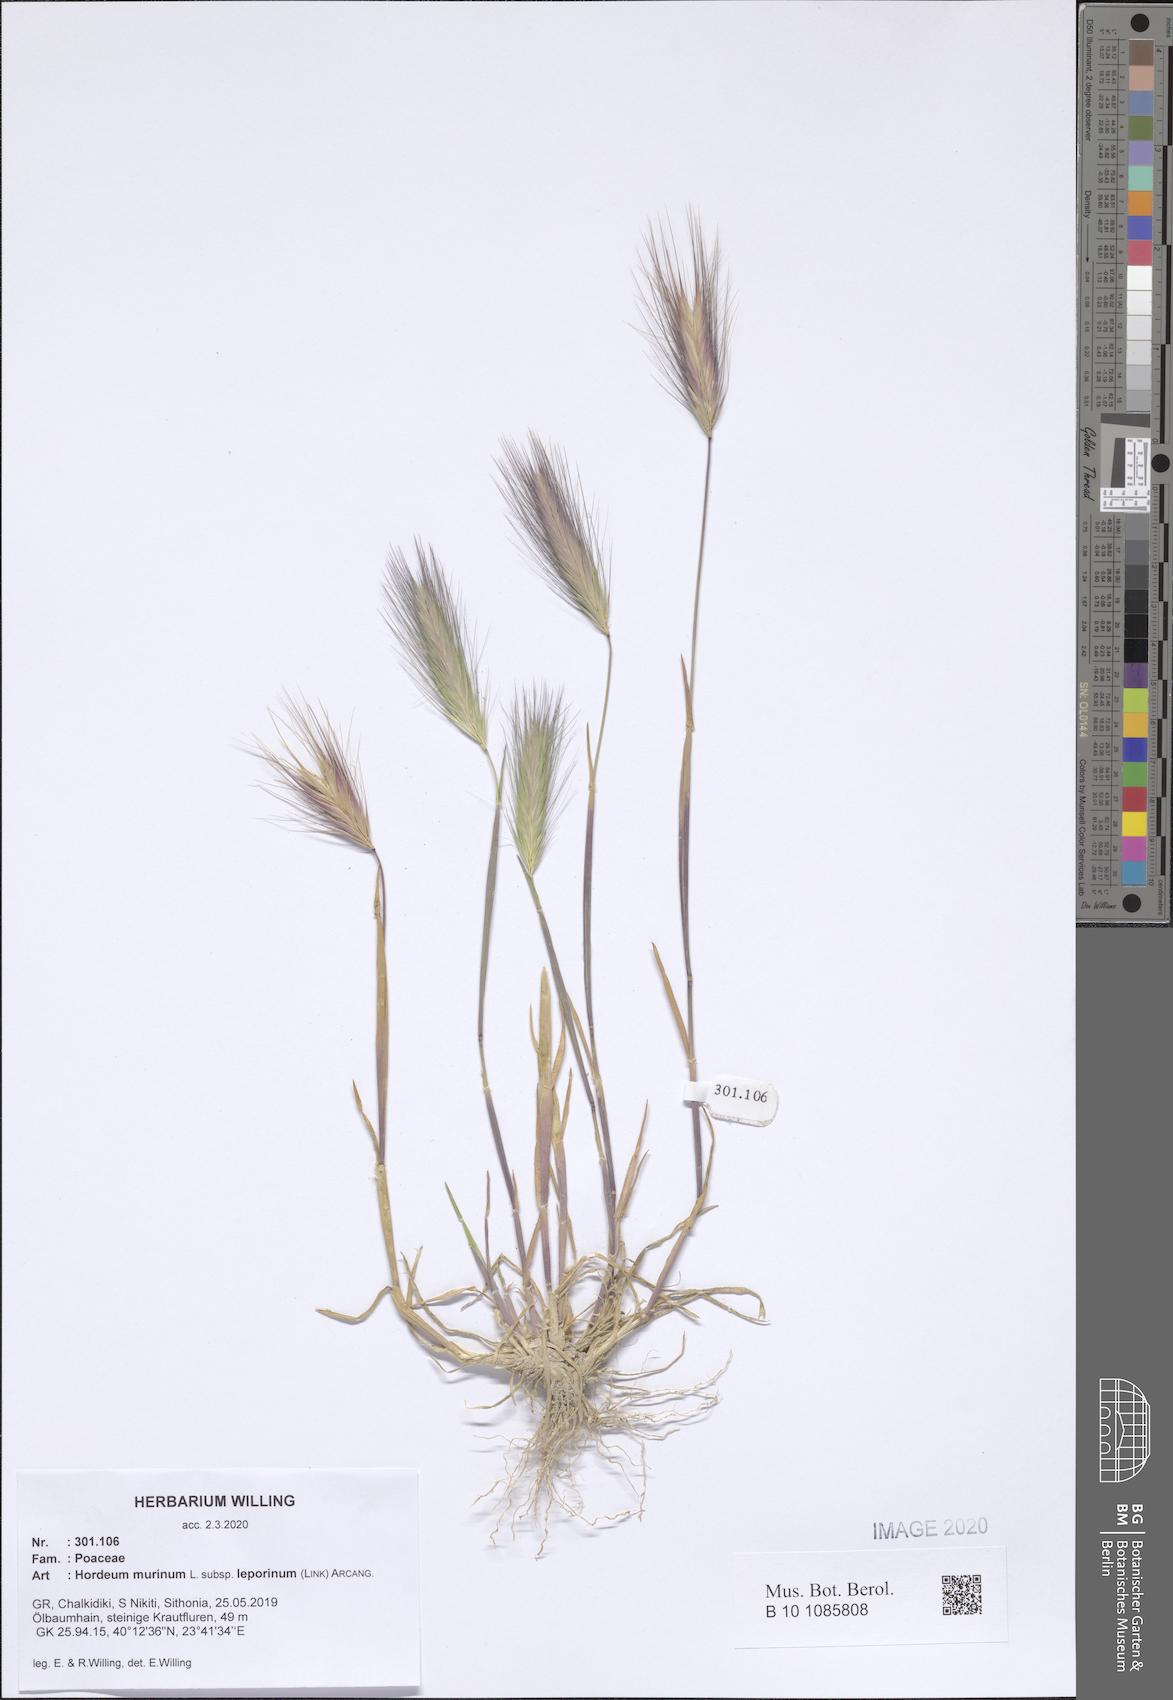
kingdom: Plantae
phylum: Tracheophyta
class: Liliopsida
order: Poales
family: Poaceae
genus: Hordeum
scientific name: Hordeum murinum
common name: Wall barley
